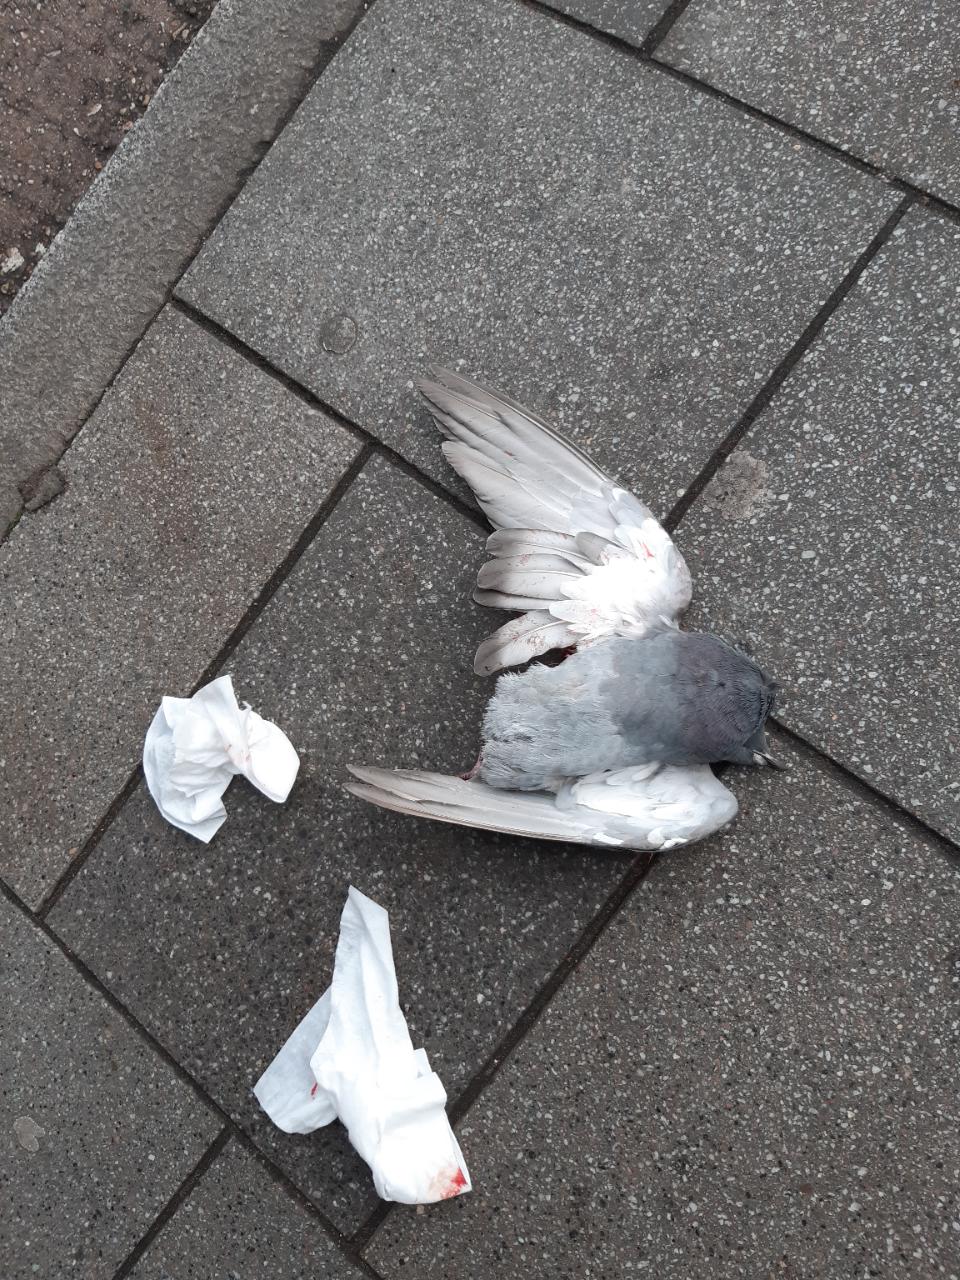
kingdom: Animalia
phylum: Chordata
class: Aves
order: Columbiformes
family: Columbidae
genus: Columba
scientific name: Columba livia
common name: Rock pigeon
